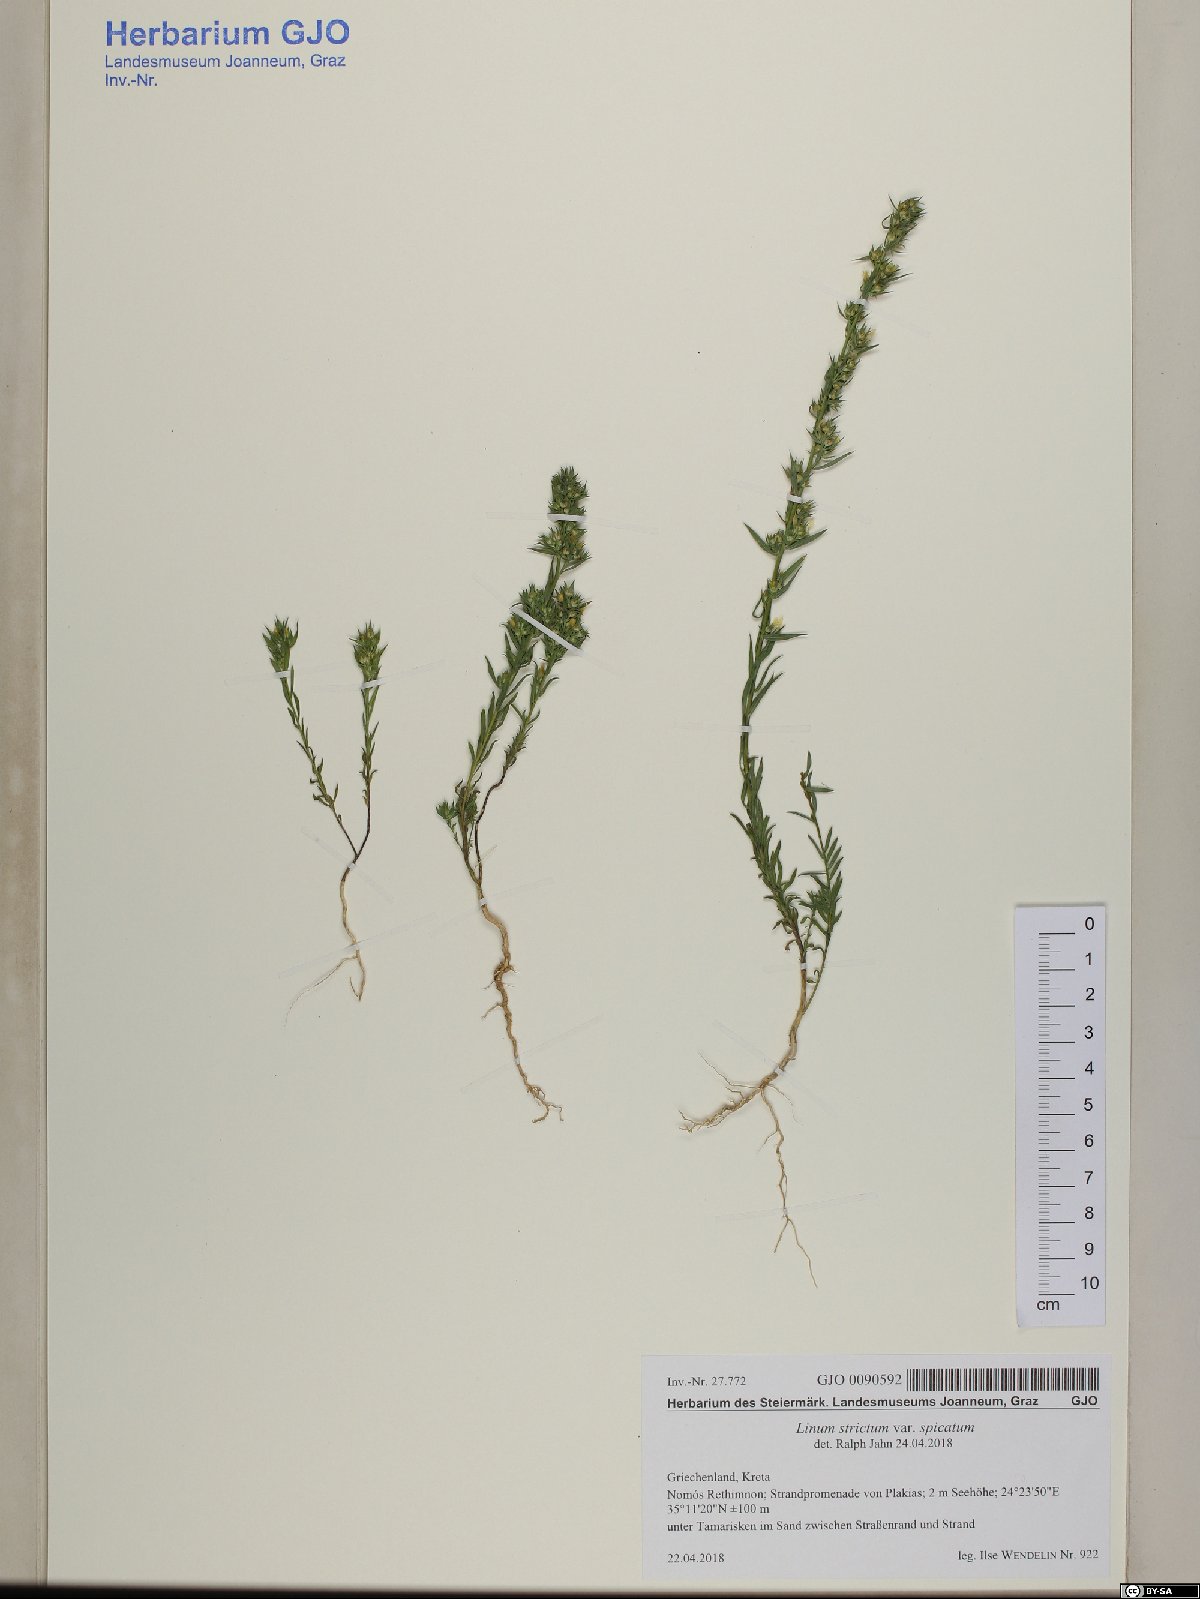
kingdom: Plantae
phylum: Tracheophyta
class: Magnoliopsida
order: Malpighiales
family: Linaceae
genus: Linum
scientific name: Linum strictum
